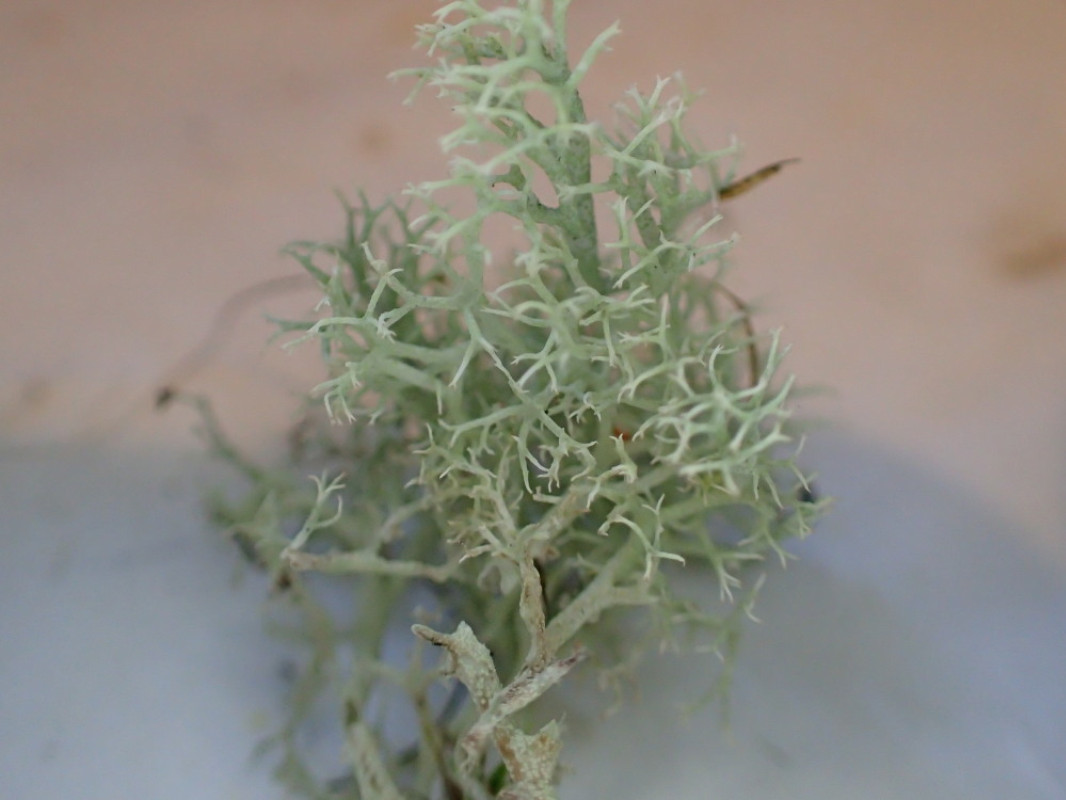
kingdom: Fungi
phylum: Ascomycota
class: Lecanoromycetes
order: Lecanorales
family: Cladoniaceae
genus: Cladonia
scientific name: Cladonia portentosa
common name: hede-rensdyrlav
